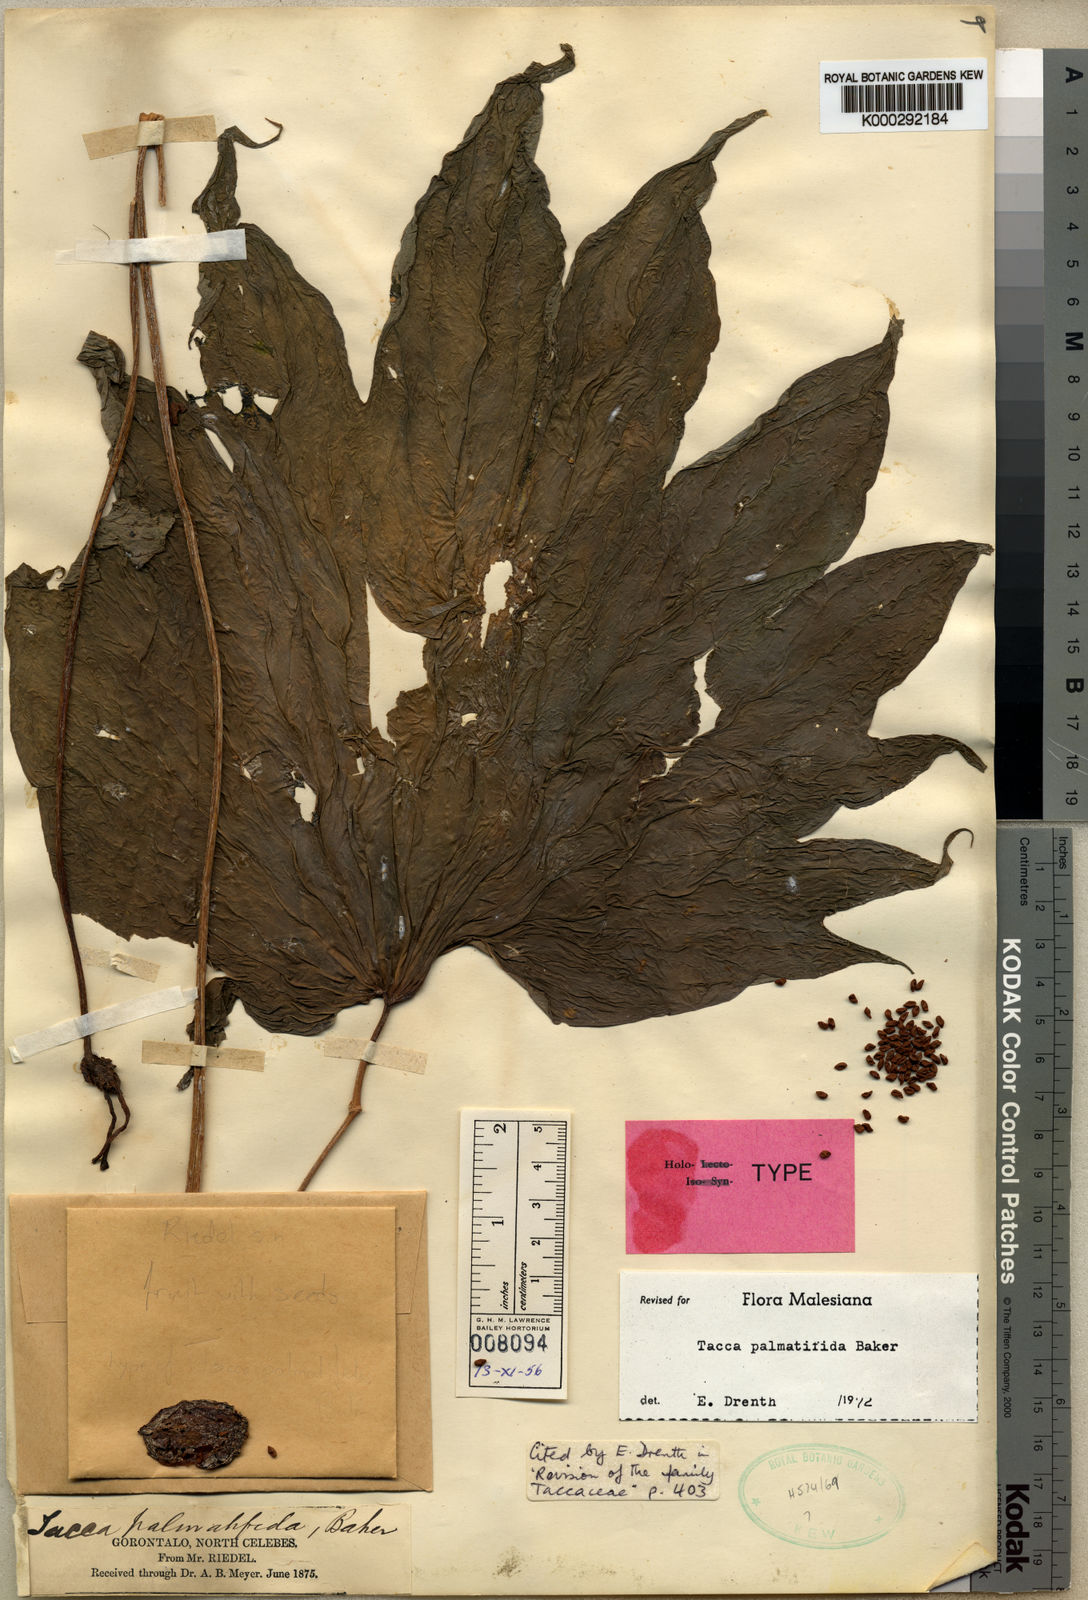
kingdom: Plantae
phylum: Tracheophyta
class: Liliopsida
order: Dioscoreales
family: Dioscoreaceae
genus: Tacca
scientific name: Tacca palmatifida
